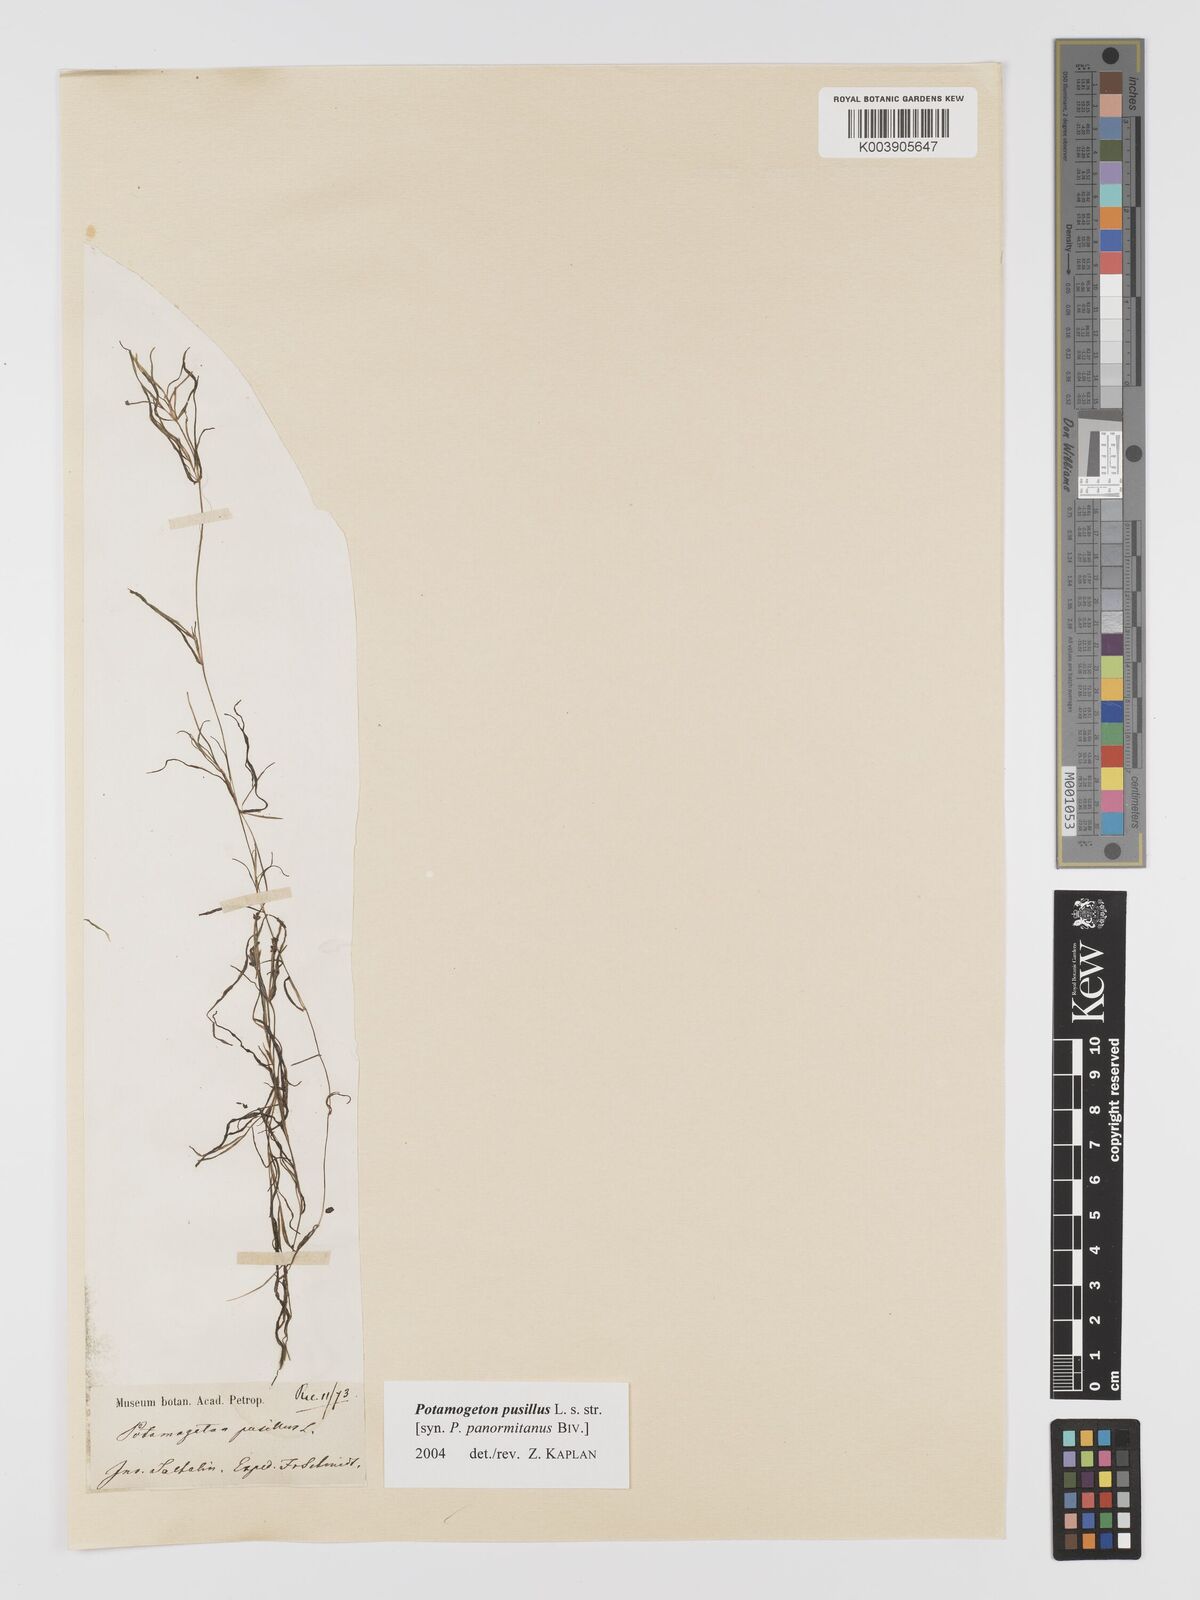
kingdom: Plantae
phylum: Tracheophyta
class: Liliopsida
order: Alismatales
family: Potamogetonaceae
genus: Potamogeton
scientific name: Potamogeton pusillus
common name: Lesser pondweed
